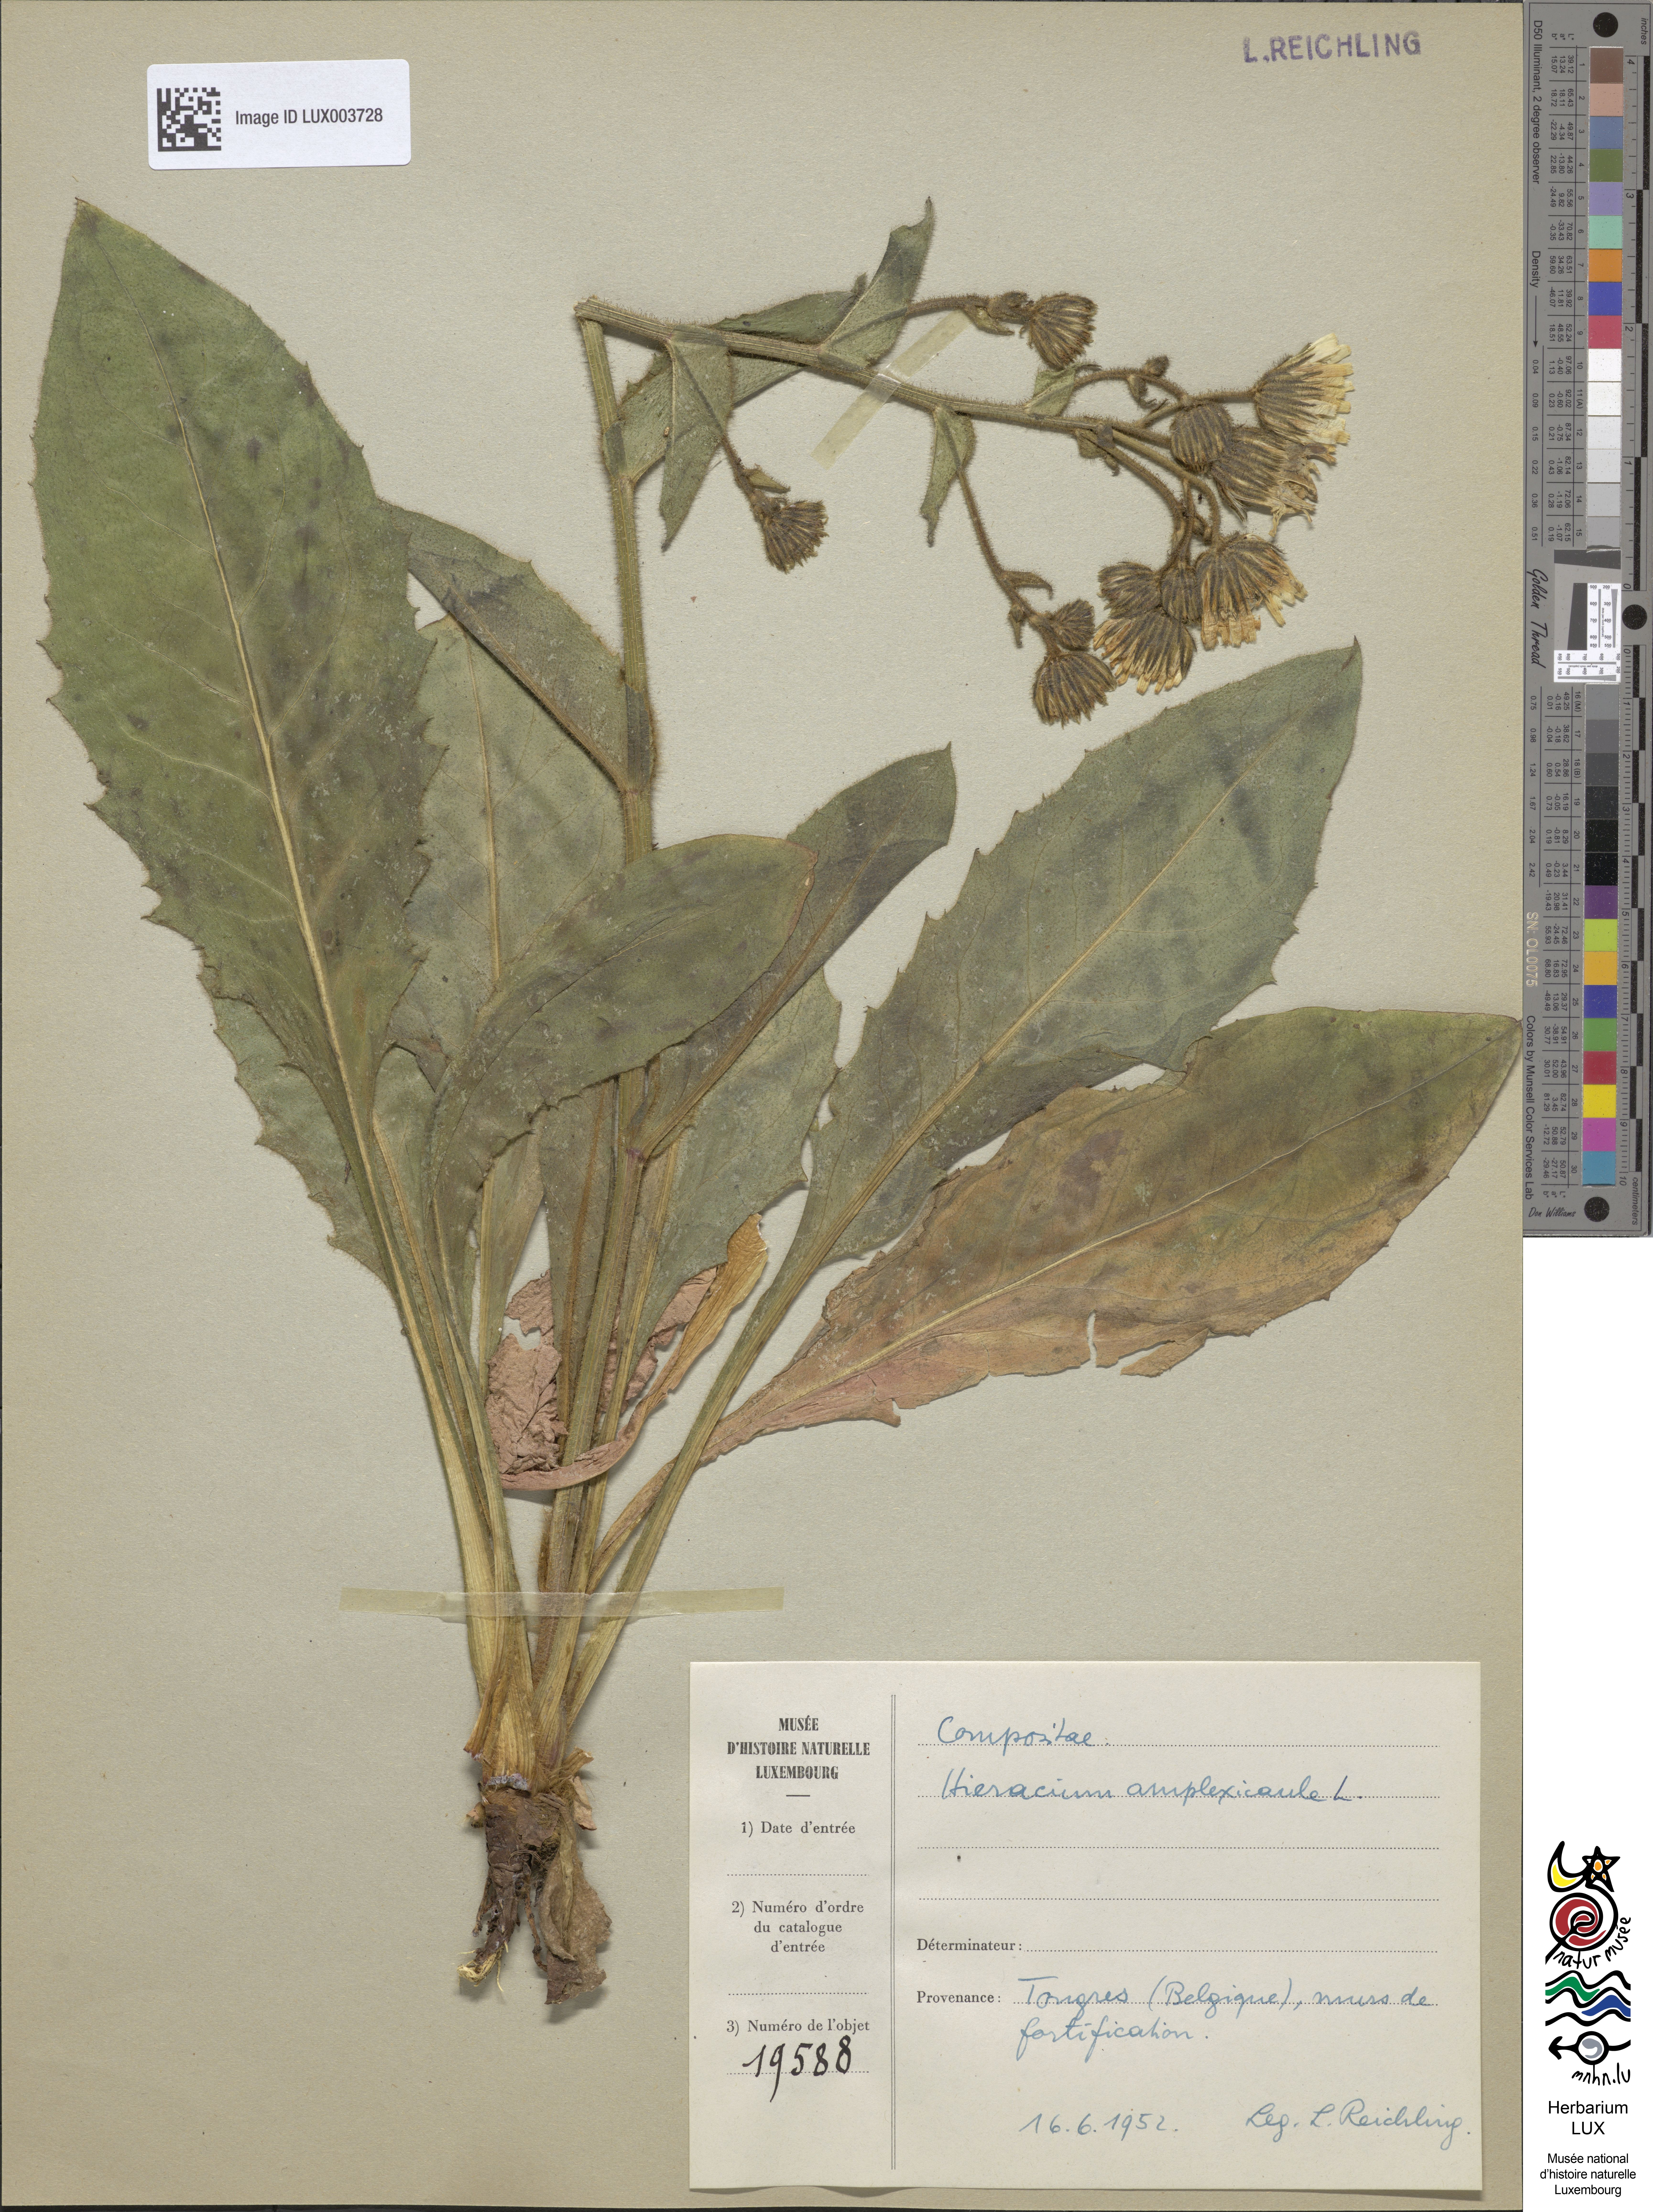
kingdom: Plantae
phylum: Tracheophyta
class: Magnoliopsida
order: Asterales
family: Asteraceae
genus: Hieracium
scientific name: Hieracium amplexicaule
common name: Sticky hawkweed
